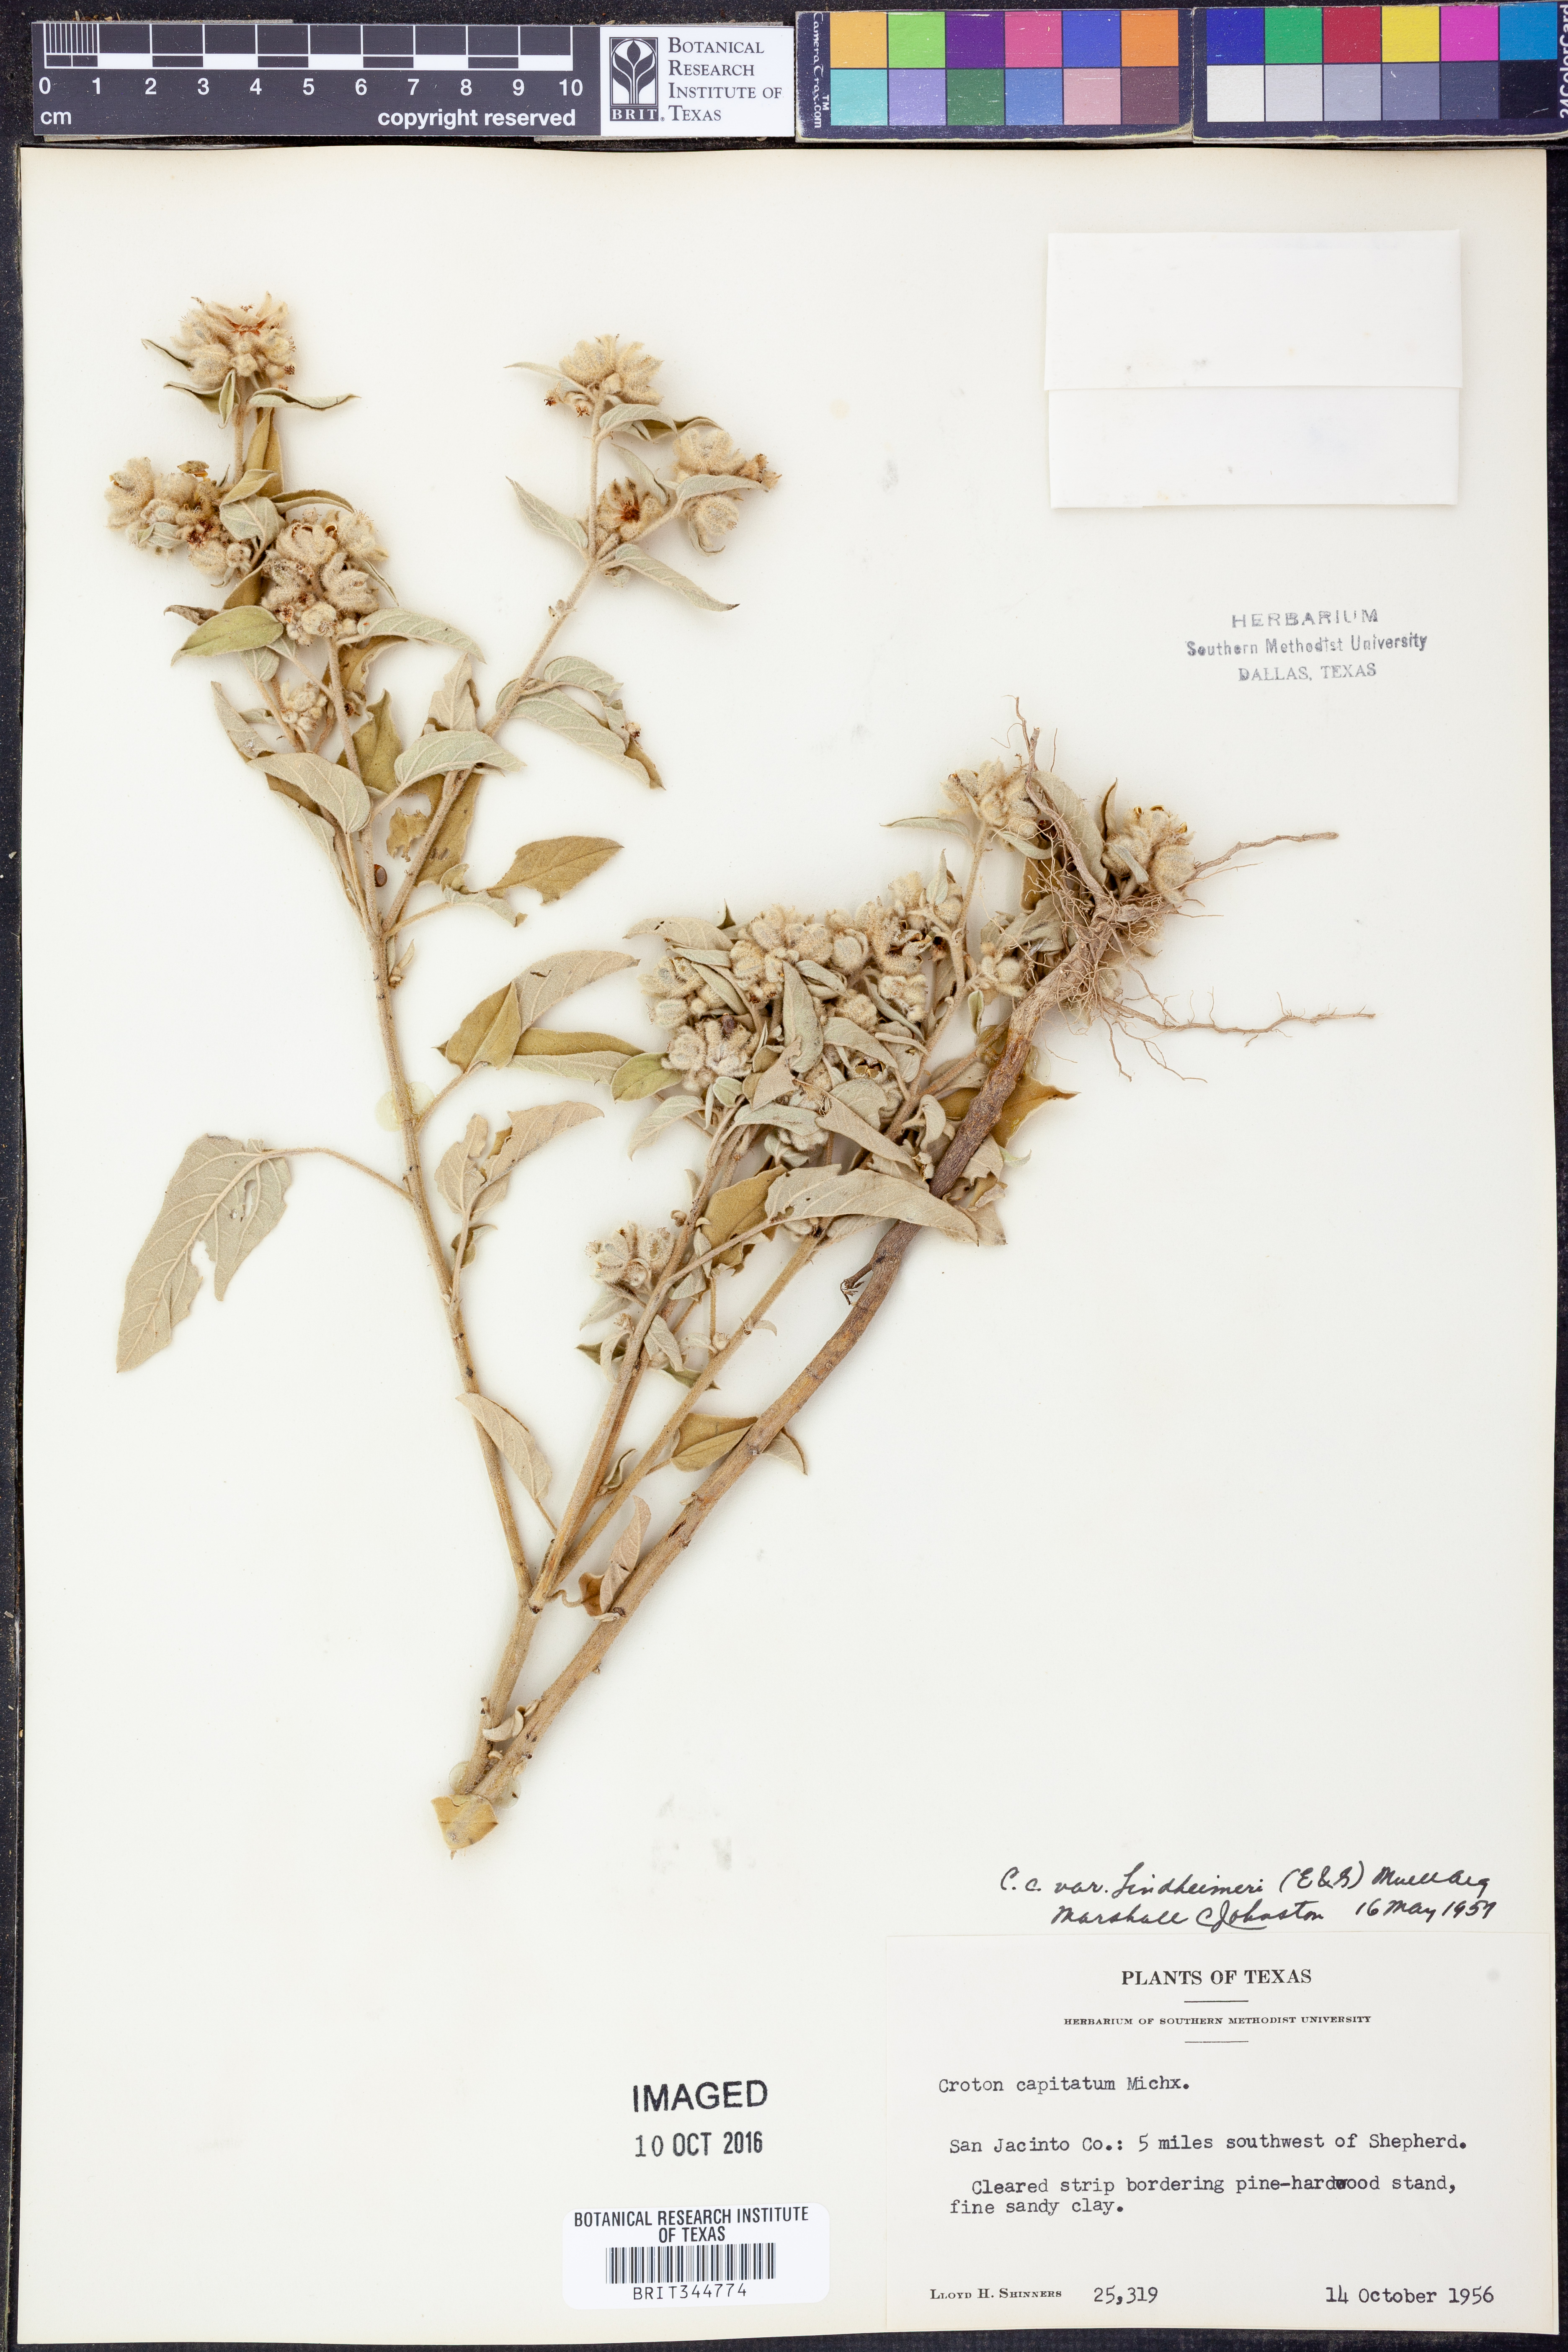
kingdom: Plantae
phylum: Tracheophyta
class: Magnoliopsida
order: Malpighiales
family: Euphorbiaceae
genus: Croton
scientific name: Croton lindheimeri
